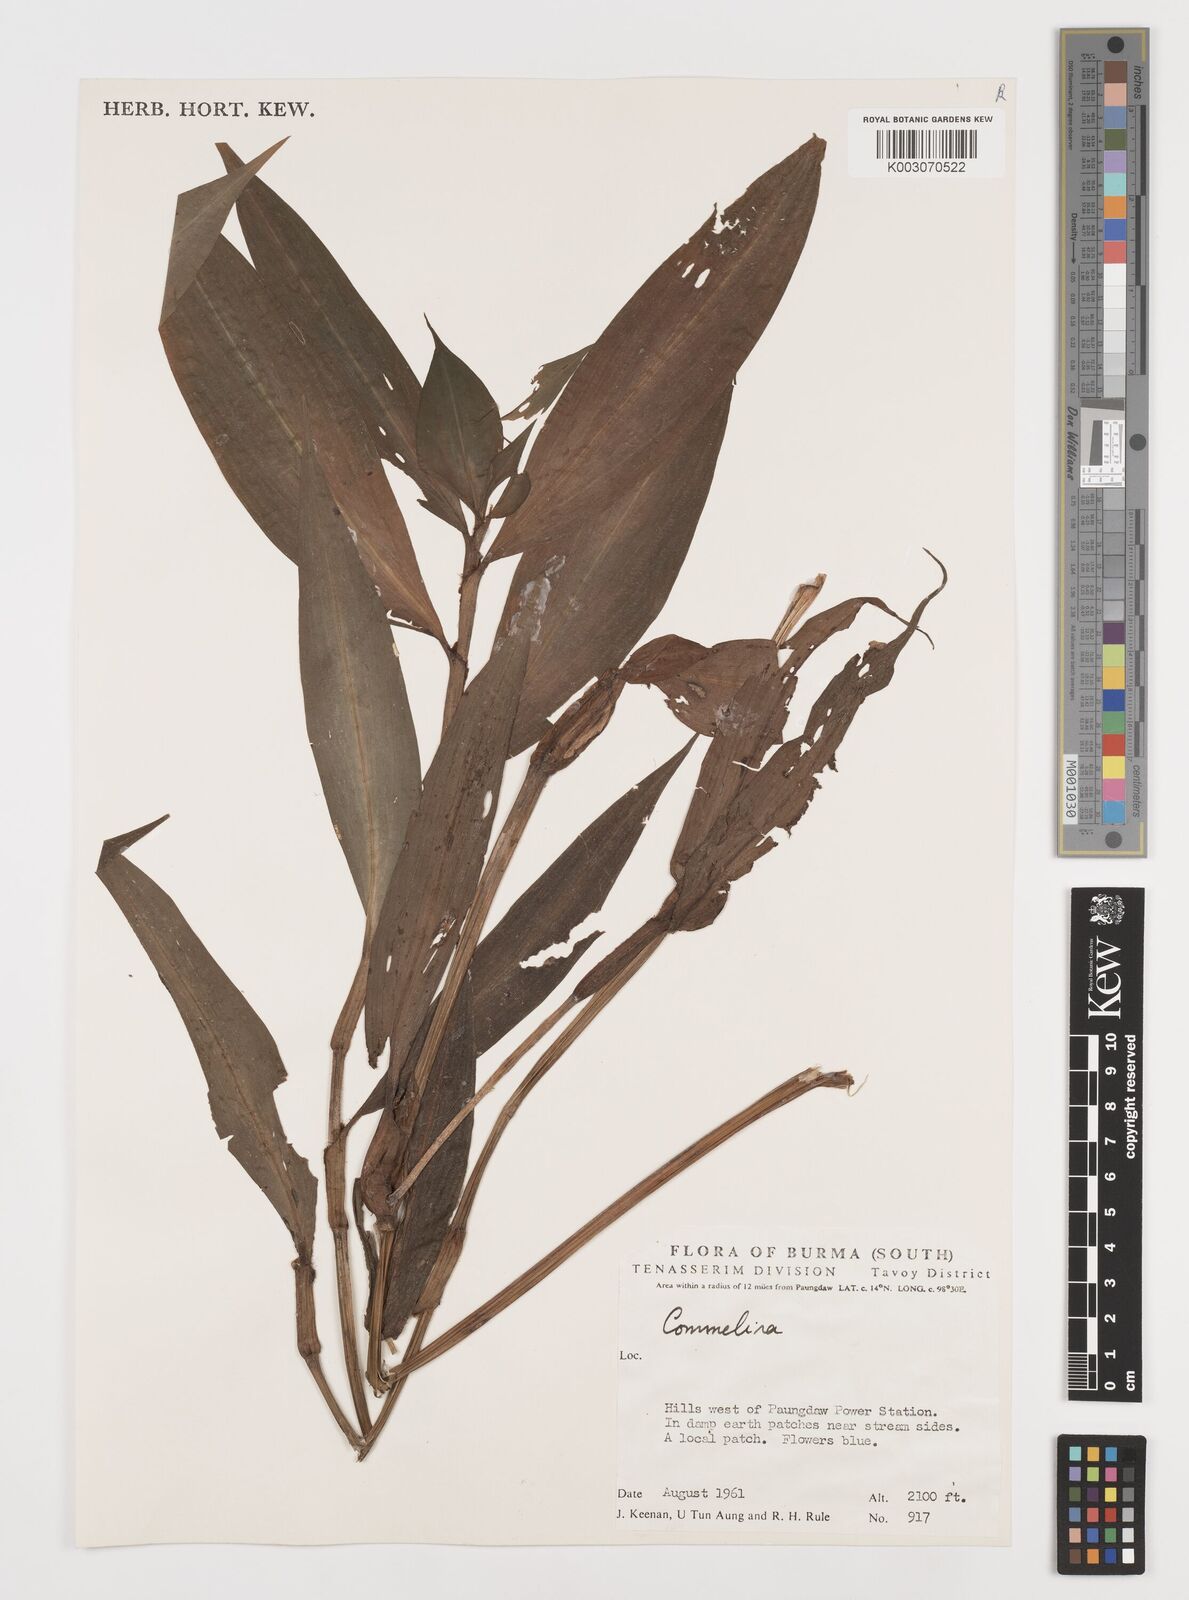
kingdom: Plantae
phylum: Tracheophyta
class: Liliopsida
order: Commelinales
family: Commelinaceae
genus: Commelina
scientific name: Commelina
